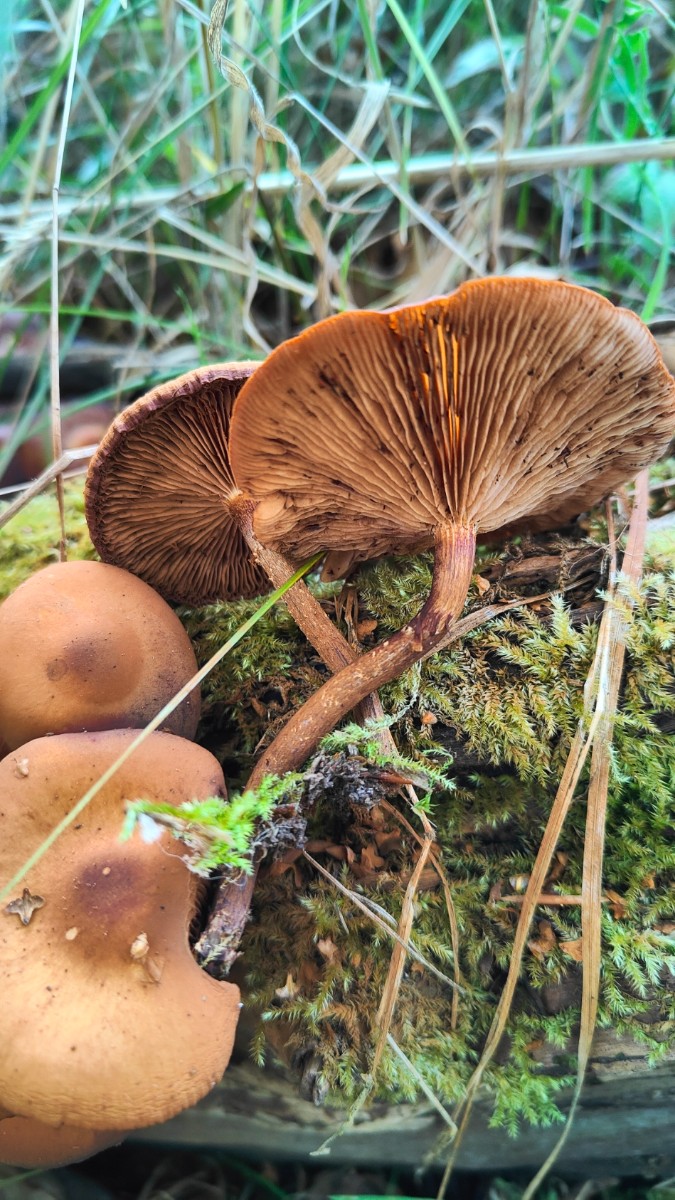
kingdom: Fungi
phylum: Basidiomycota
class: Agaricomycetes
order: Agaricales
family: Strophariaceae
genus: Kuehneromyces
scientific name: Kuehneromyces mutabilis
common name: foranderlig skælhat
